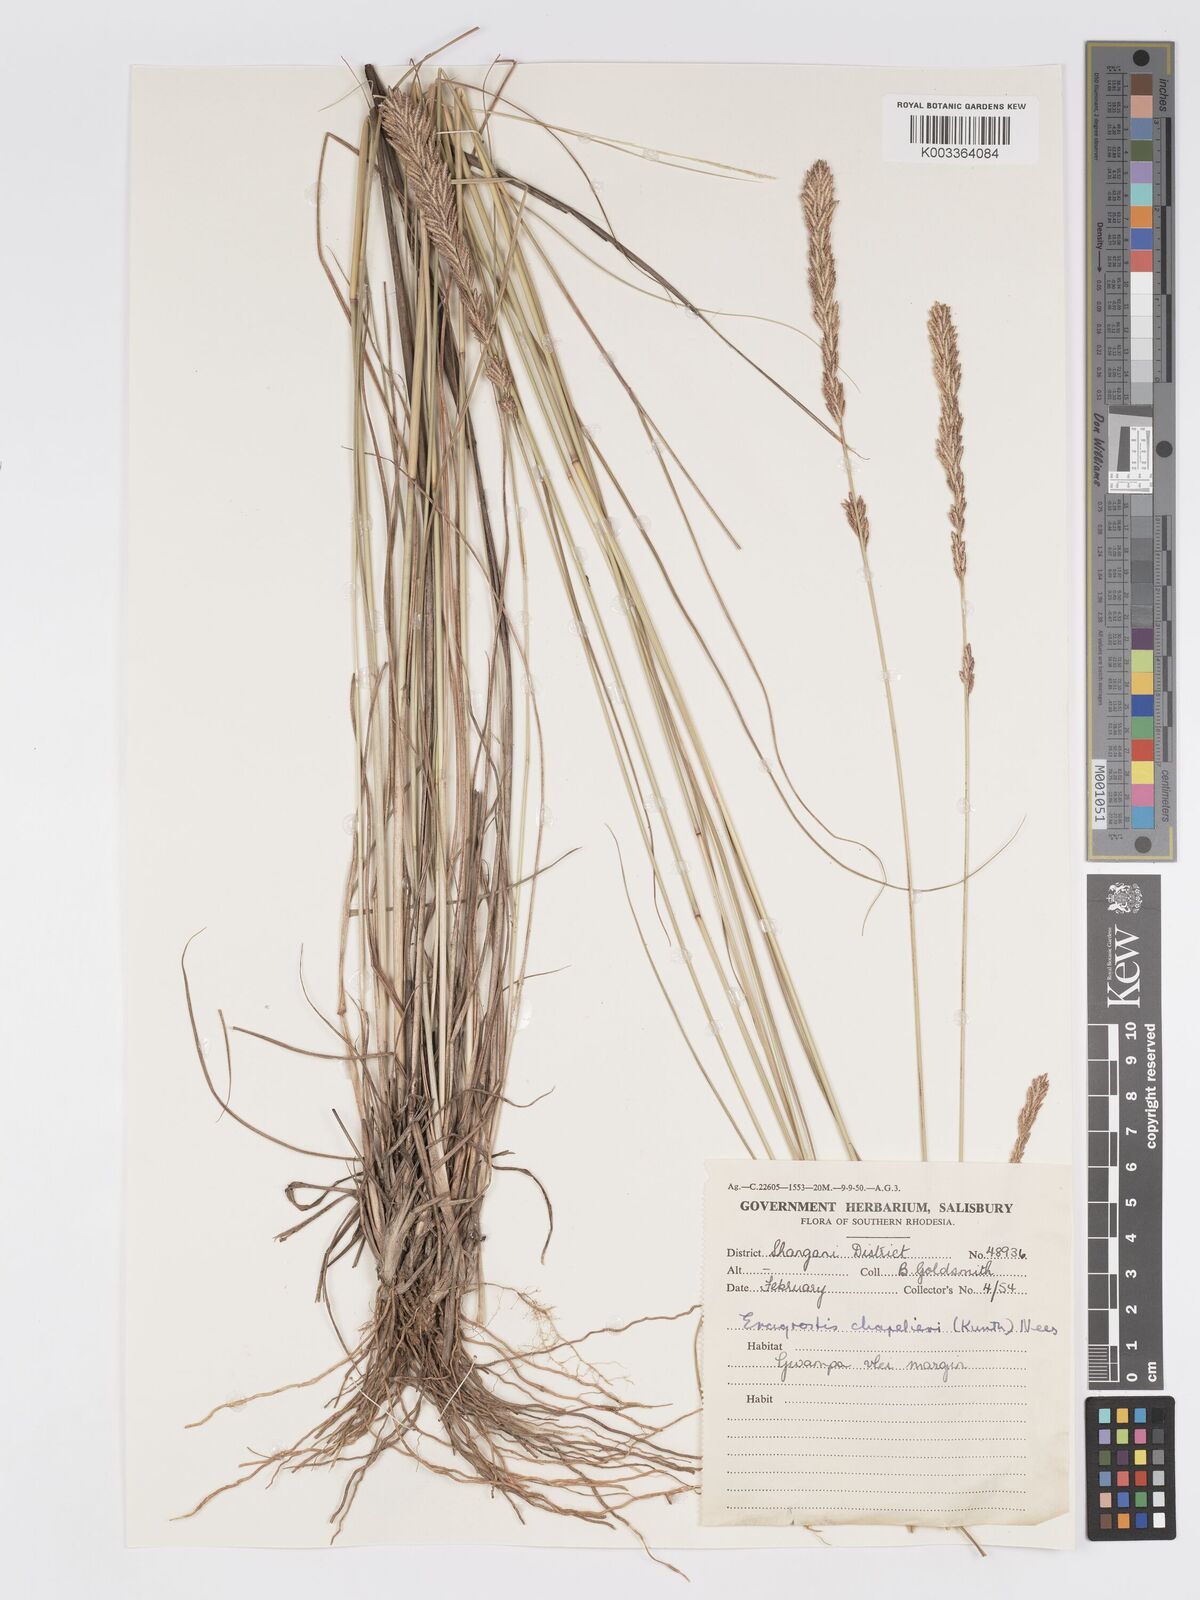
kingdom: Plantae
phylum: Tracheophyta
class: Liliopsida
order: Poales
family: Poaceae
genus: Eragrostis
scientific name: Eragrostis chapelieri
